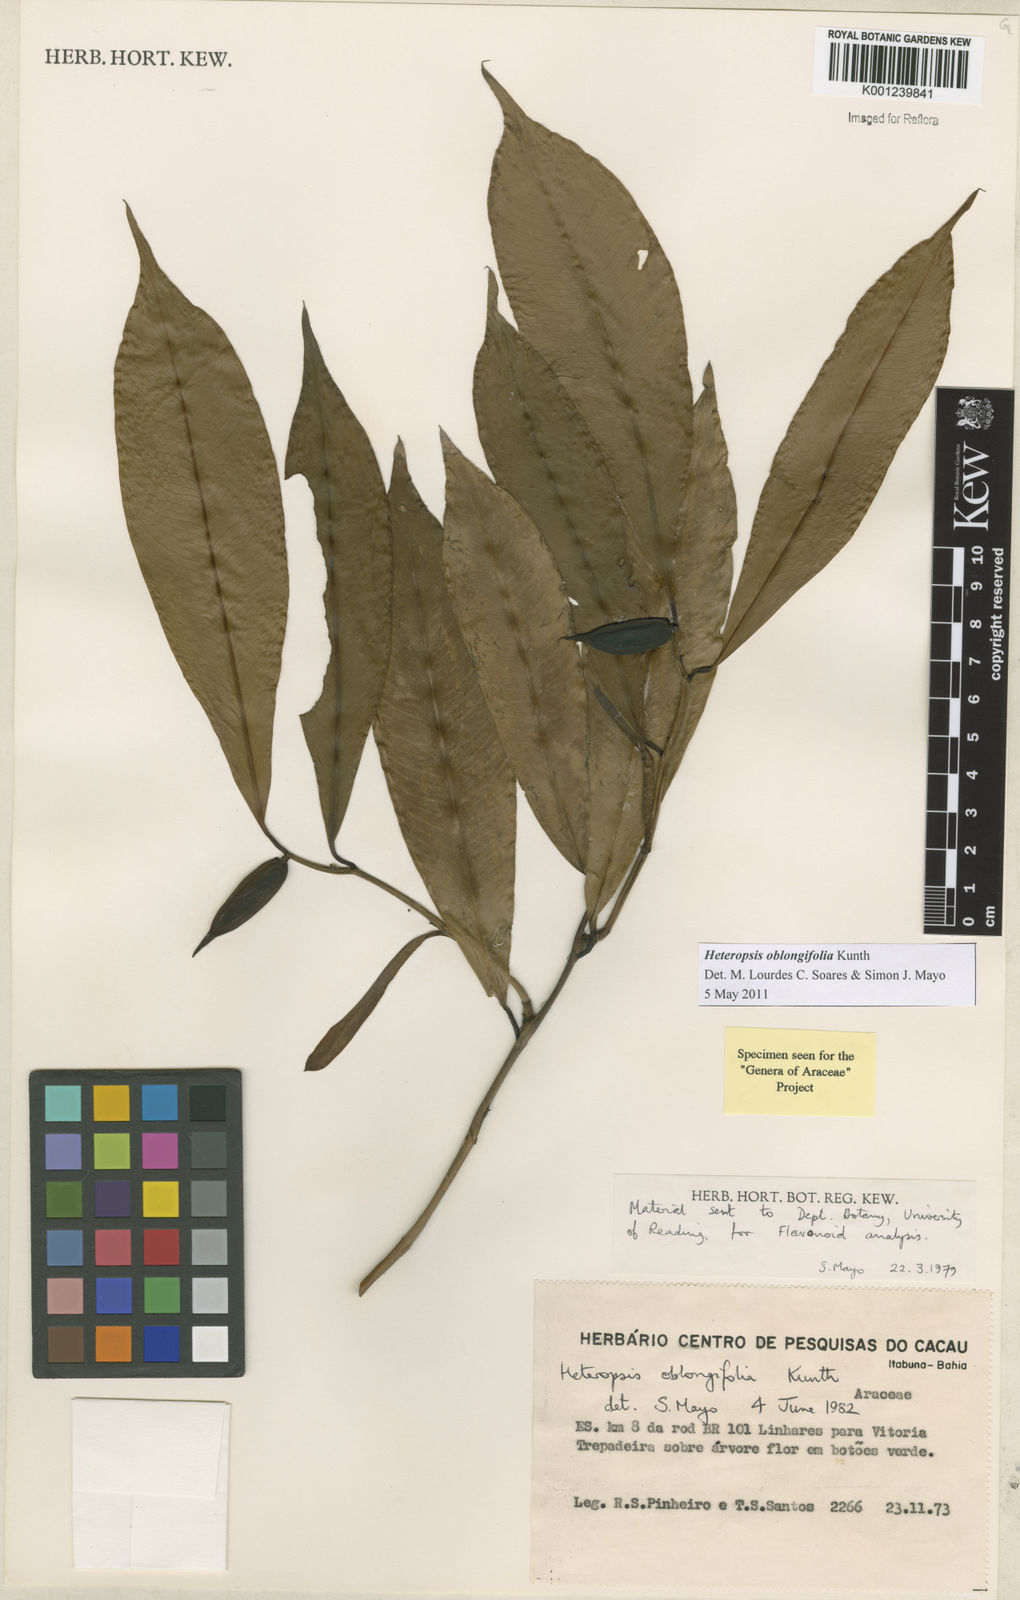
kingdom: Plantae
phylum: Tracheophyta
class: Liliopsida
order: Alismatales
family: Araceae
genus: Heteropsis
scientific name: Heteropsis oblongifolia
